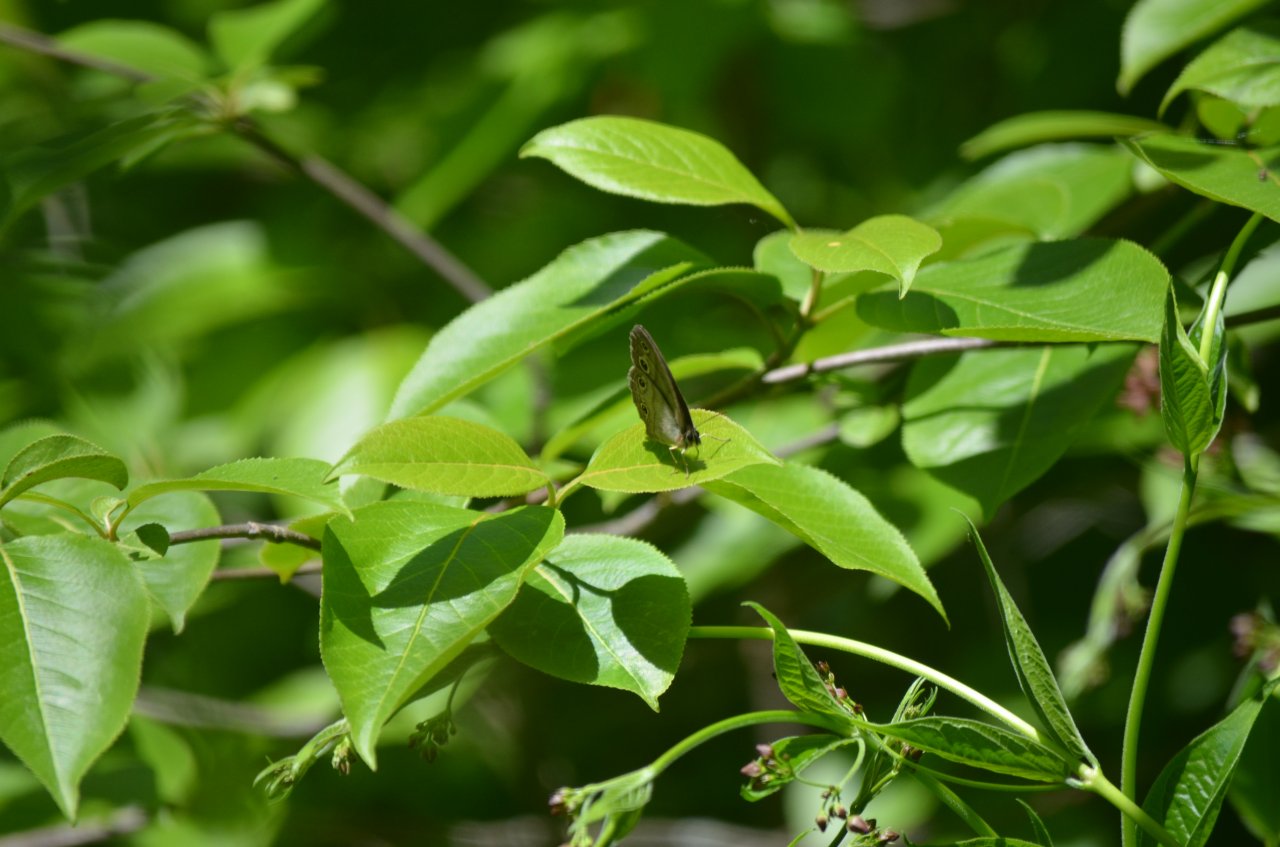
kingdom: Animalia
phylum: Arthropoda
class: Insecta
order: Lepidoptera
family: Nymphalidae
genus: Euptychia
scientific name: Euptychia cymela
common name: Little Wood Satyr
